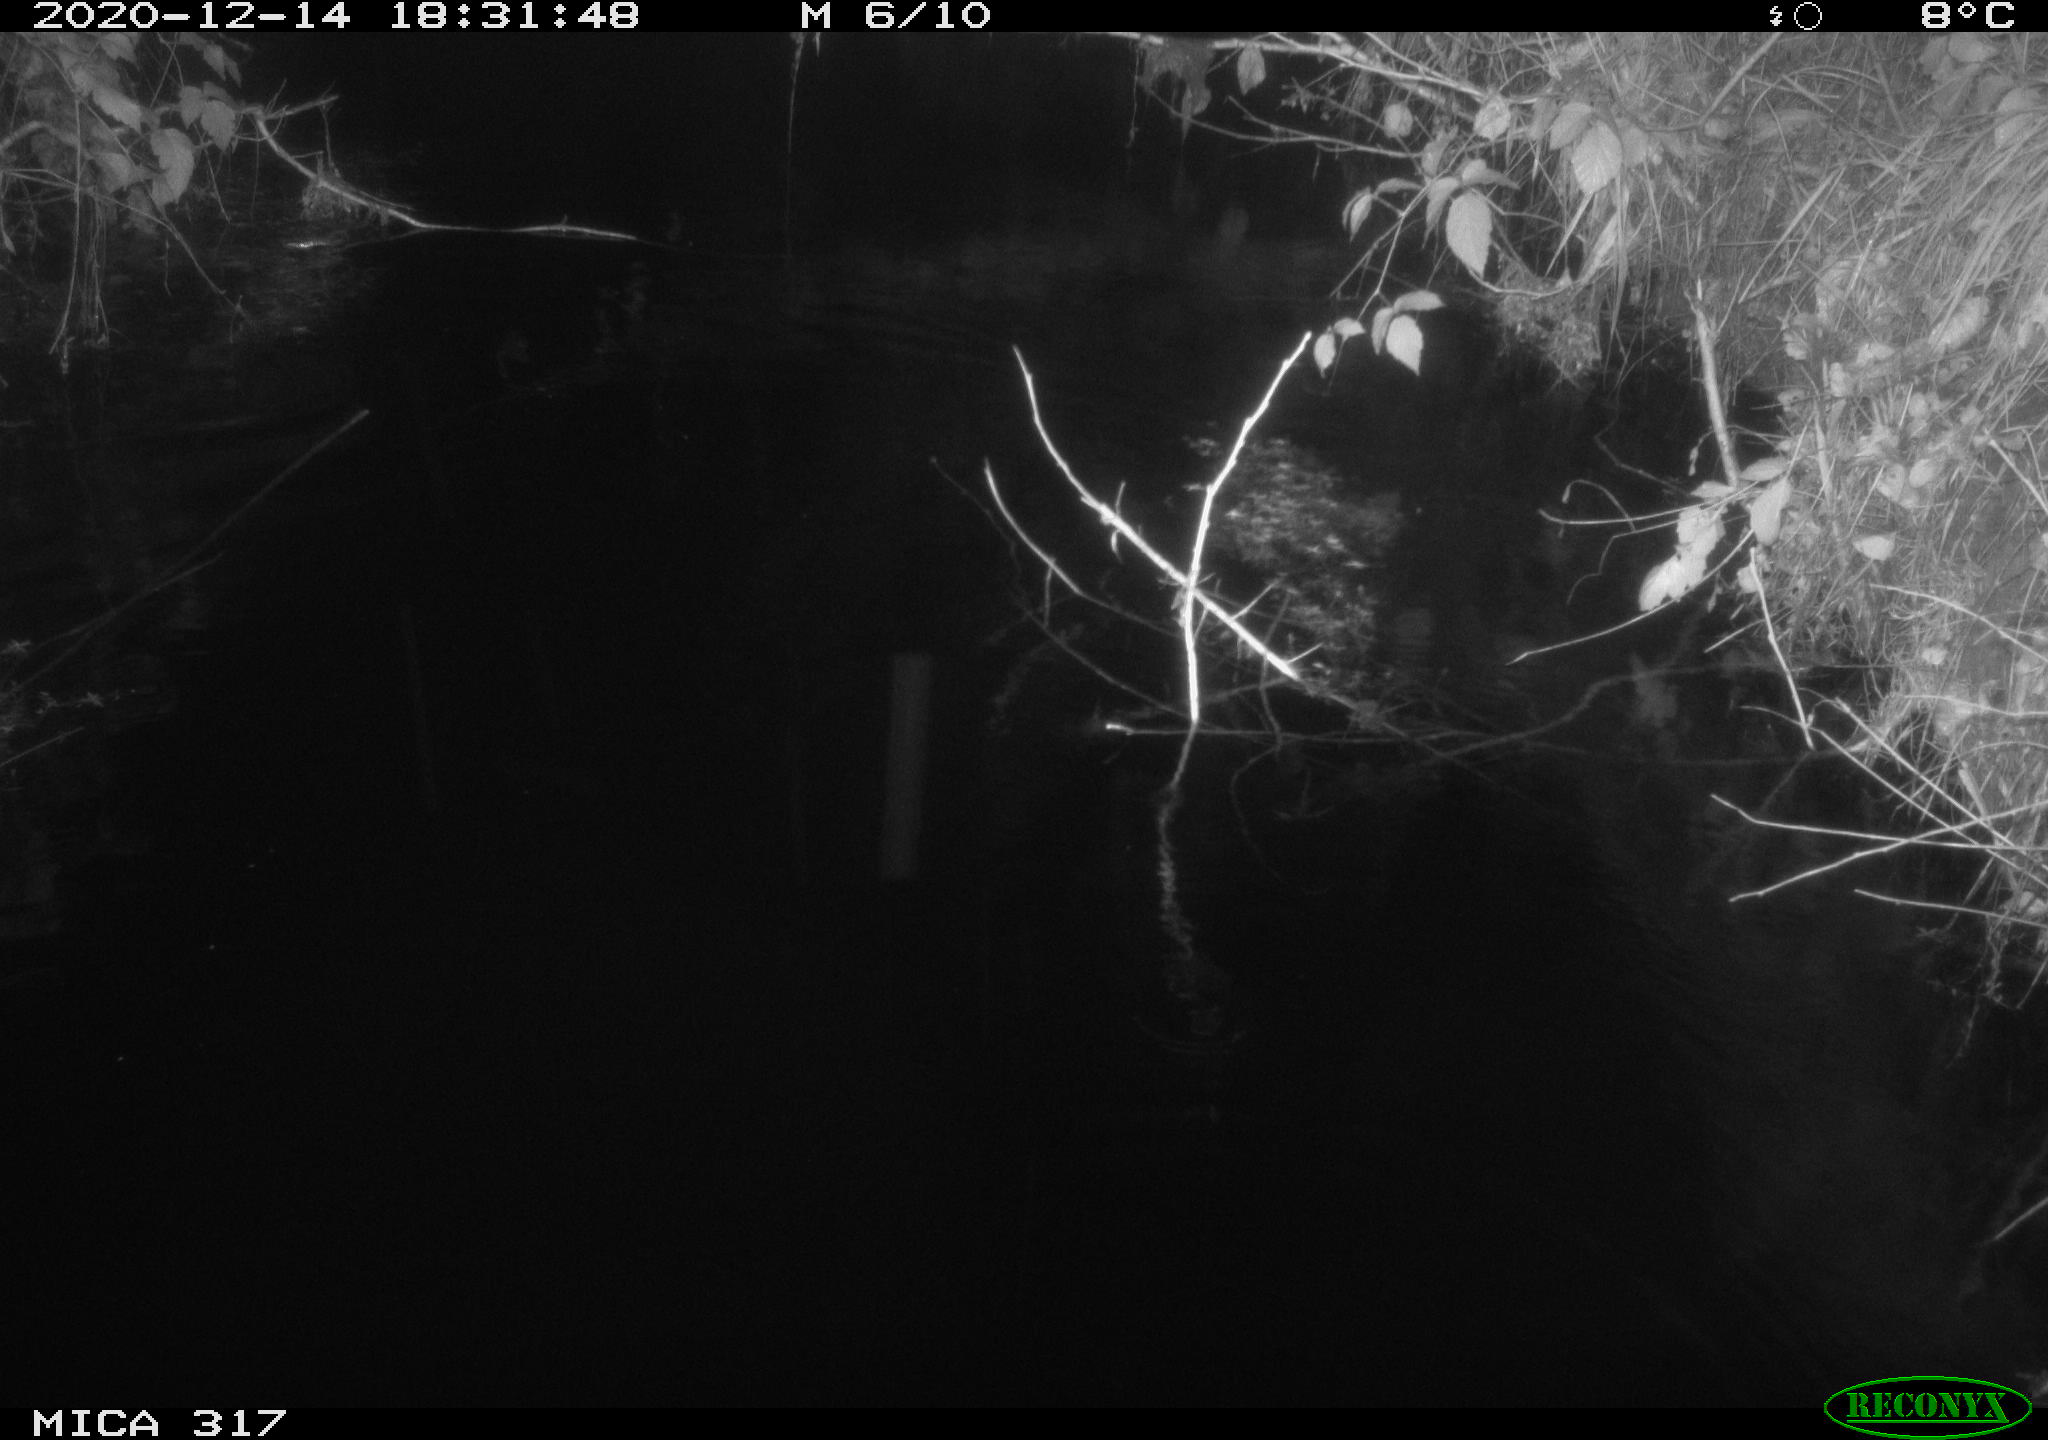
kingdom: Animalia
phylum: Chordata
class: Mammalia
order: Rodentia
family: Muridae
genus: Rattus
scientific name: Rattus norvegicus
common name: Brown rat
